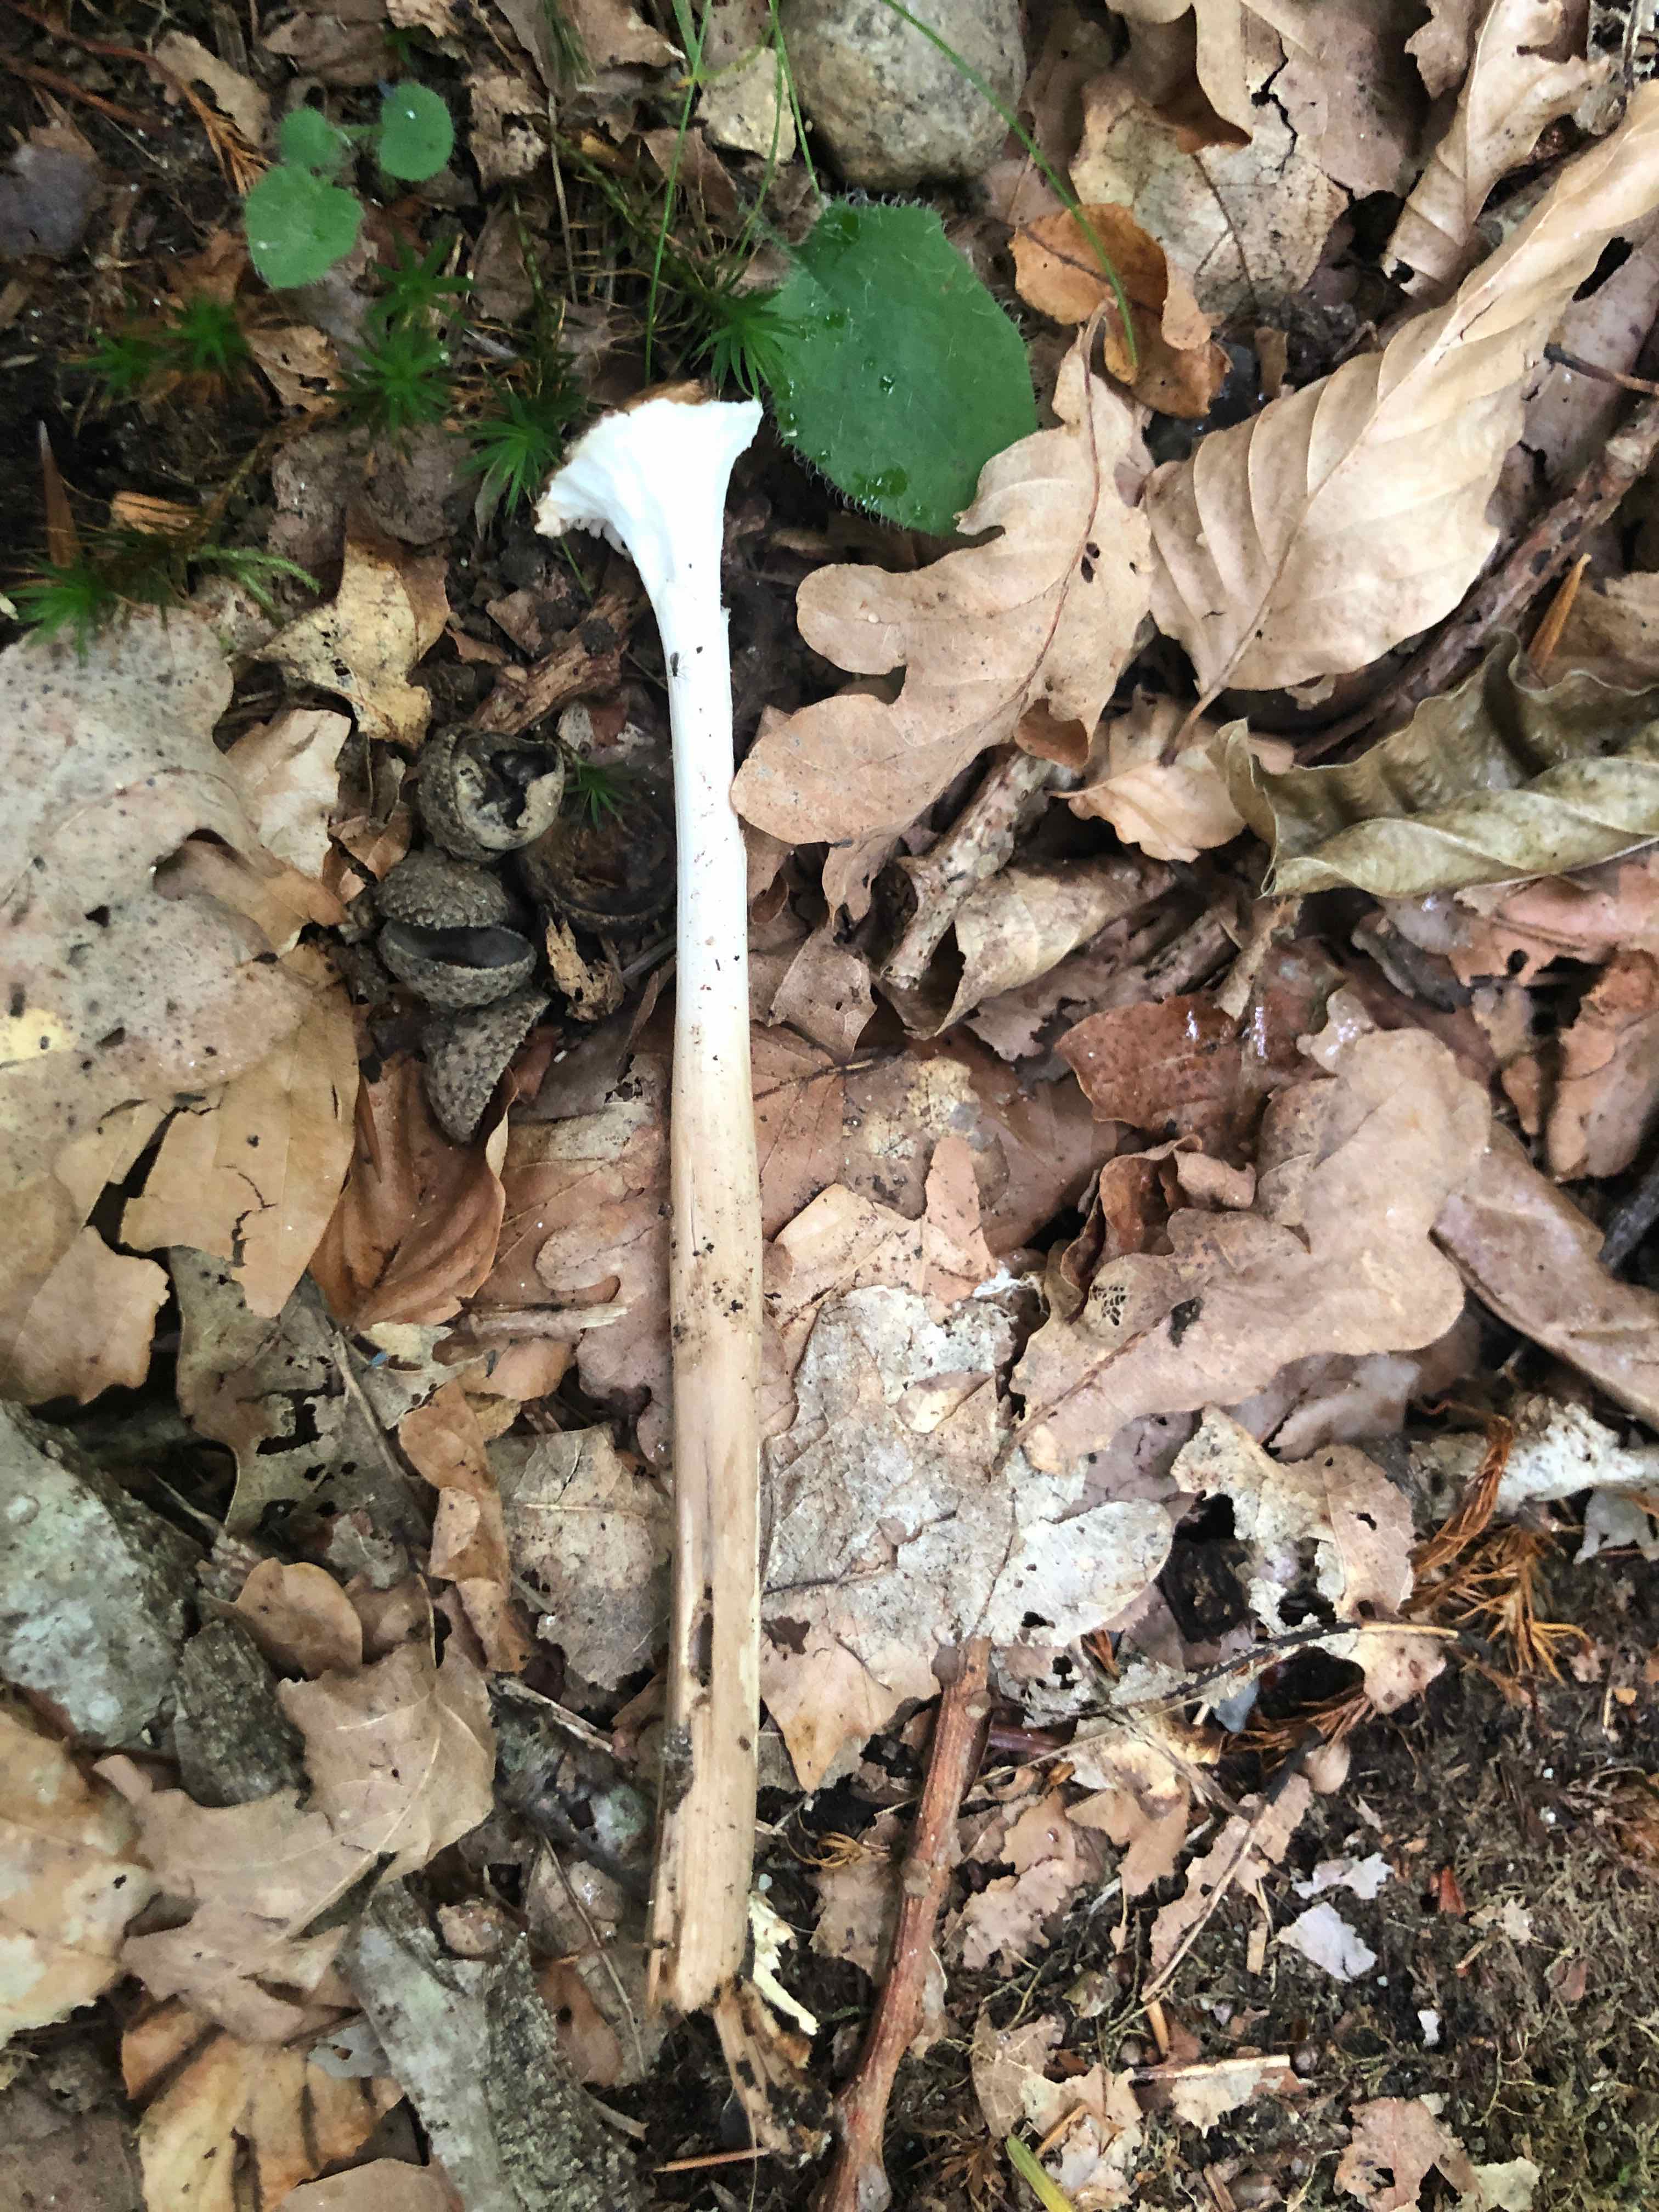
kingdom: Fungi
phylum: Basidiomycota
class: Agaricomycetes
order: Agaricales
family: Physalacriaceae
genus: Hymenopellis
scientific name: Hymenopellis radicata
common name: almindelig pælerodshat
